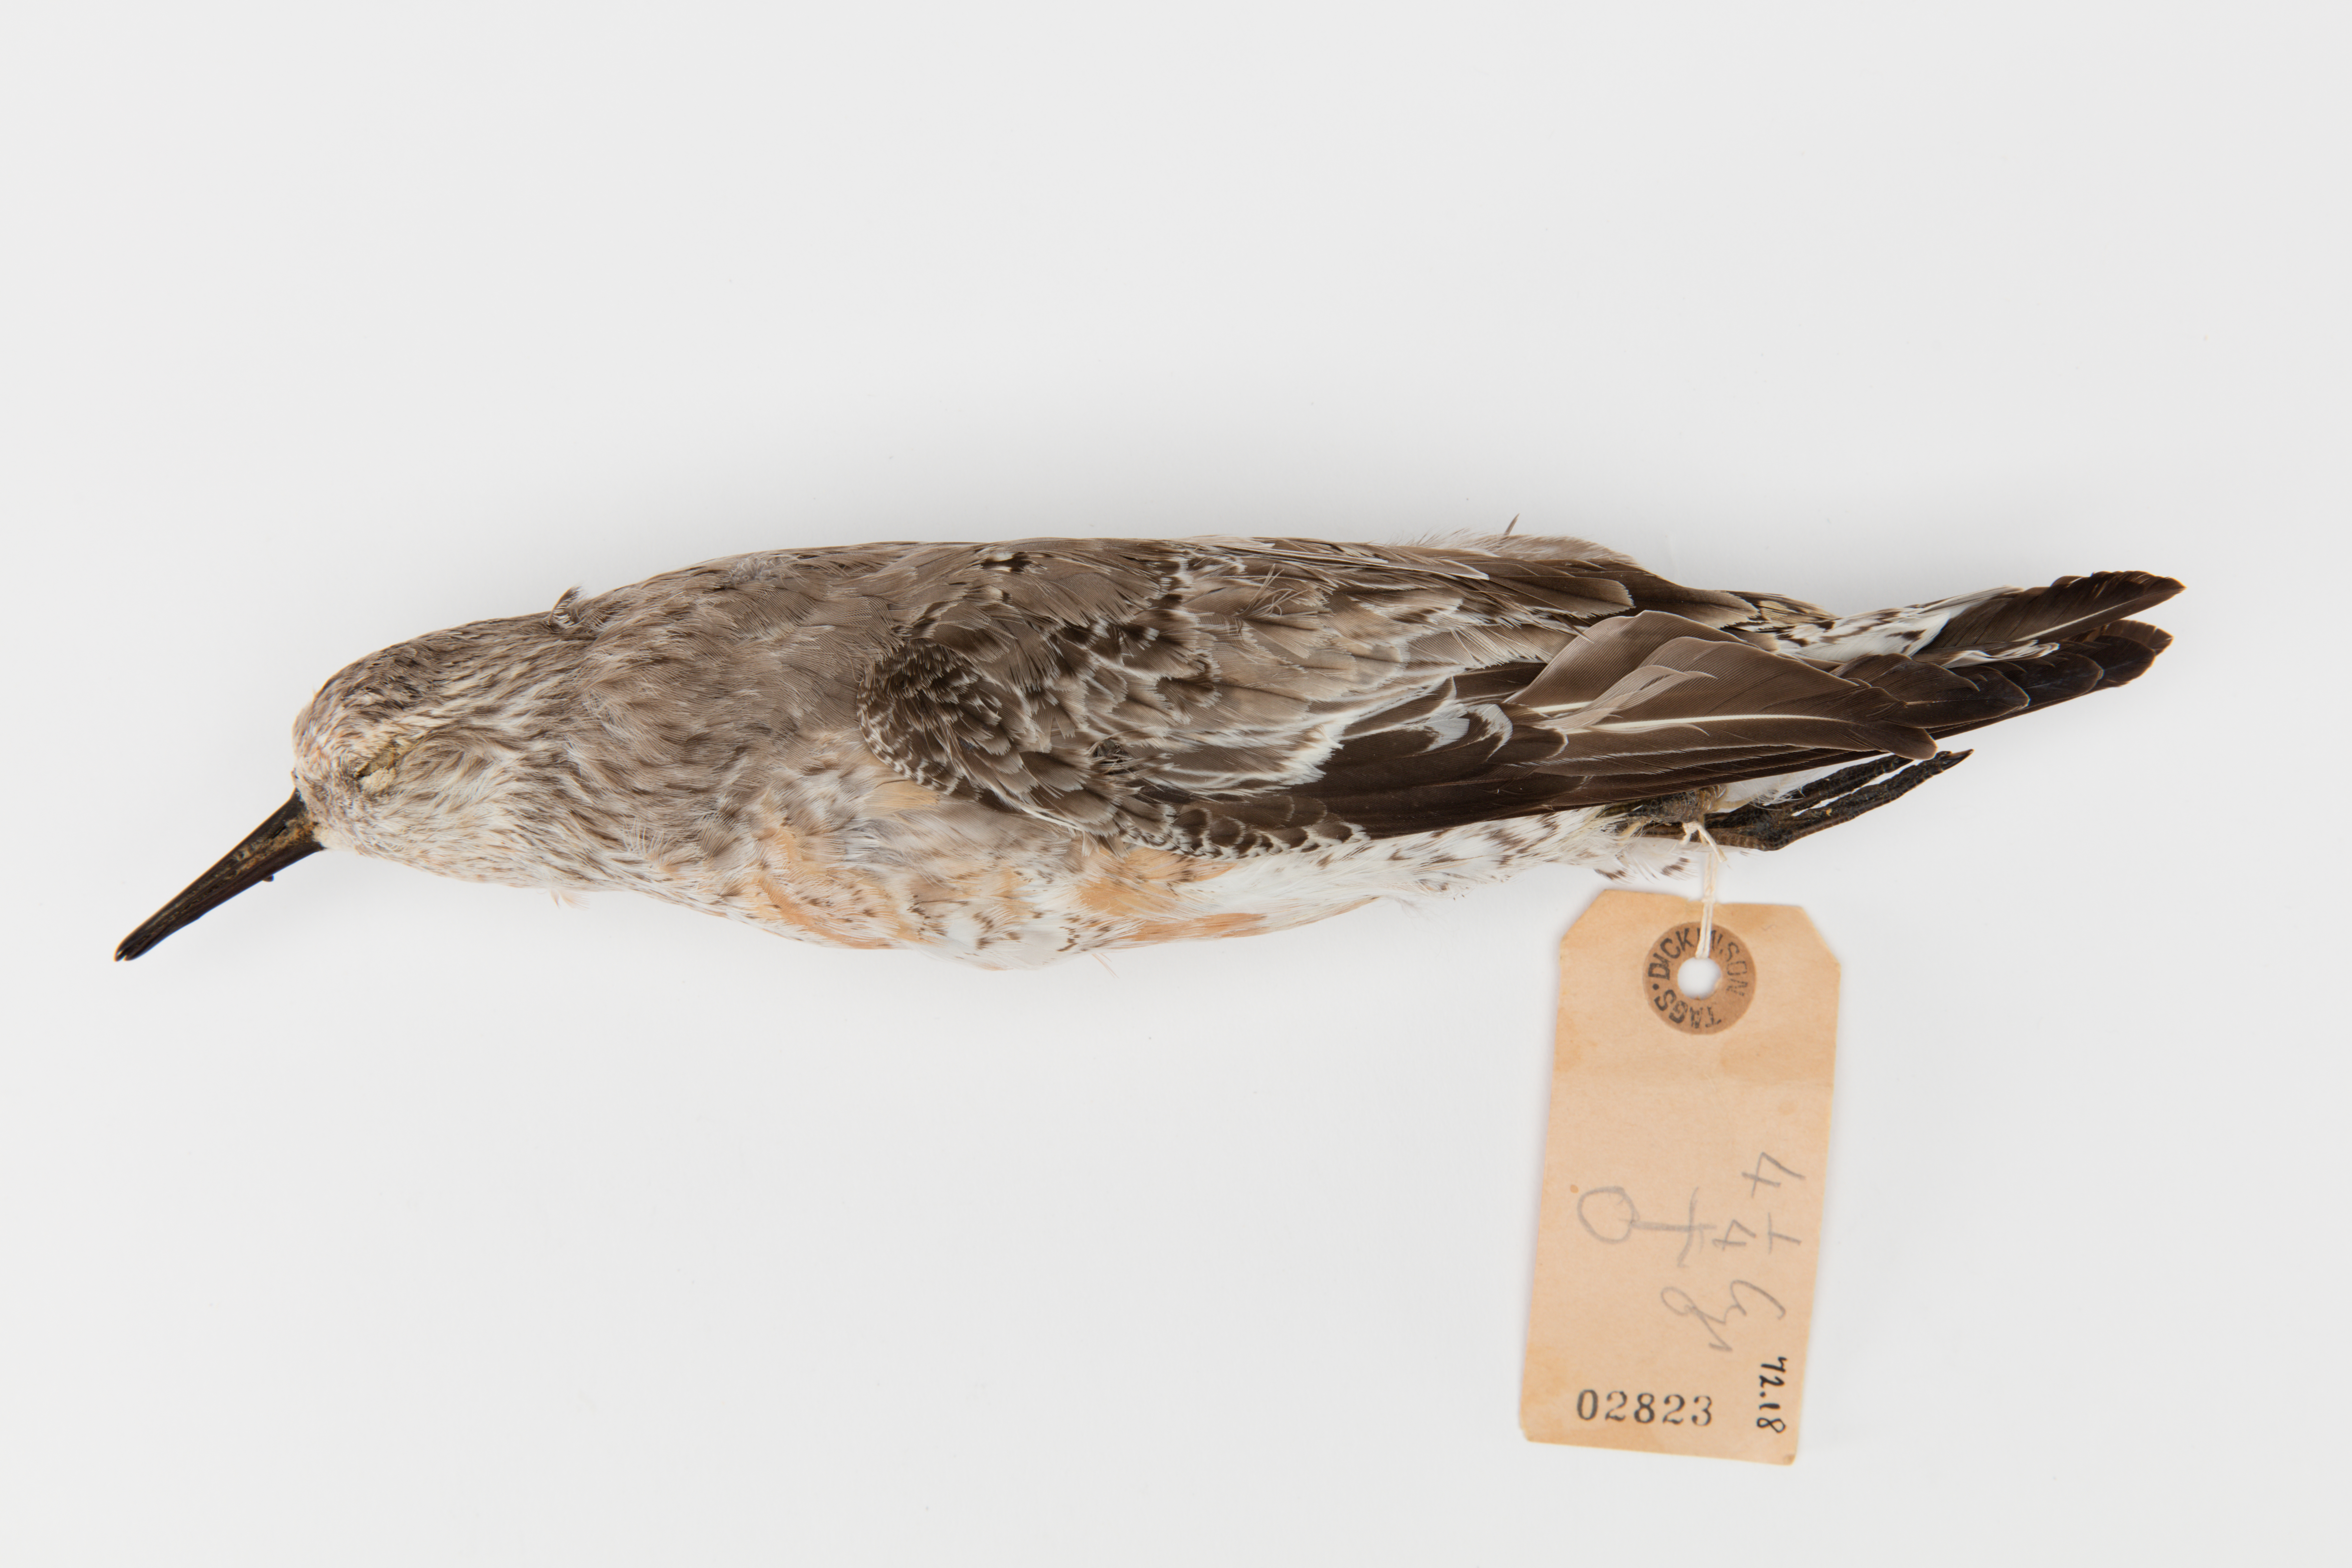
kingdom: Animalia
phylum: Chordata
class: Aves
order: Charadriiformes
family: Scolopacidae
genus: Calidris
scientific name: Calidris canutus
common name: Red knot
